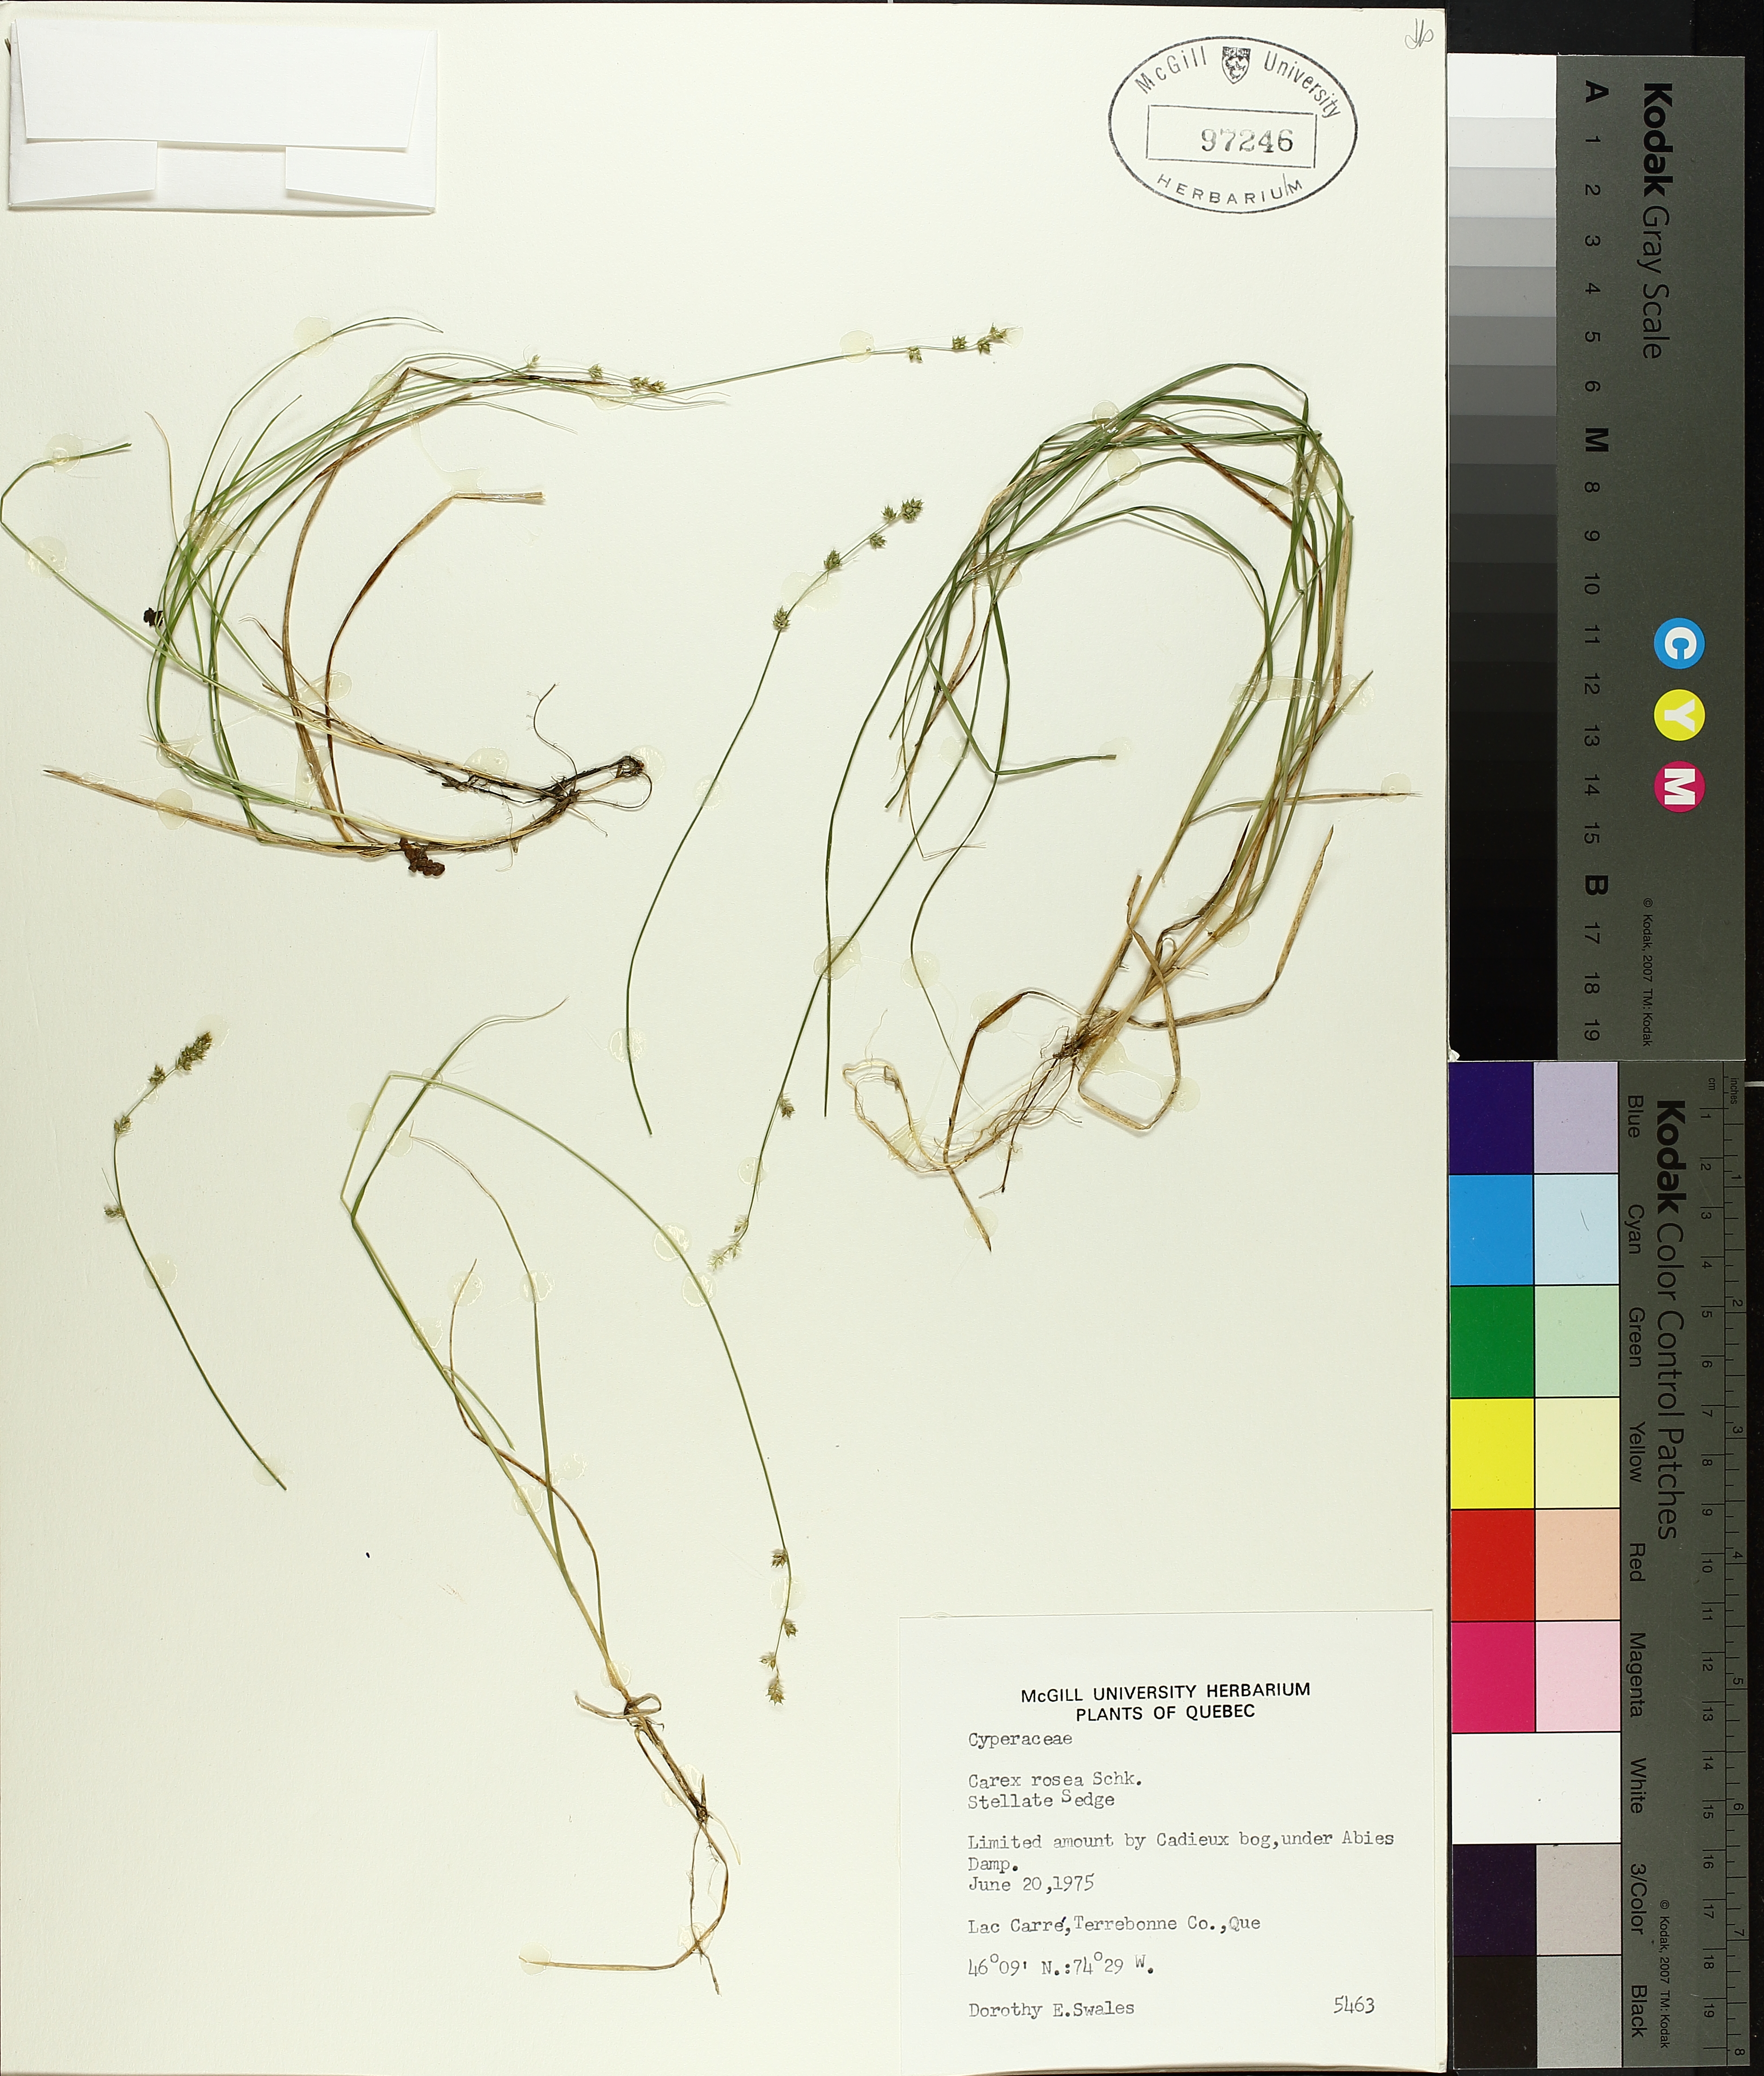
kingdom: Plantae
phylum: Tracheophyta
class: Liliopsida
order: Poales
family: Cyperaceae
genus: Carex
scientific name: Carex rosea
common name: Curly-styled wood sedge
